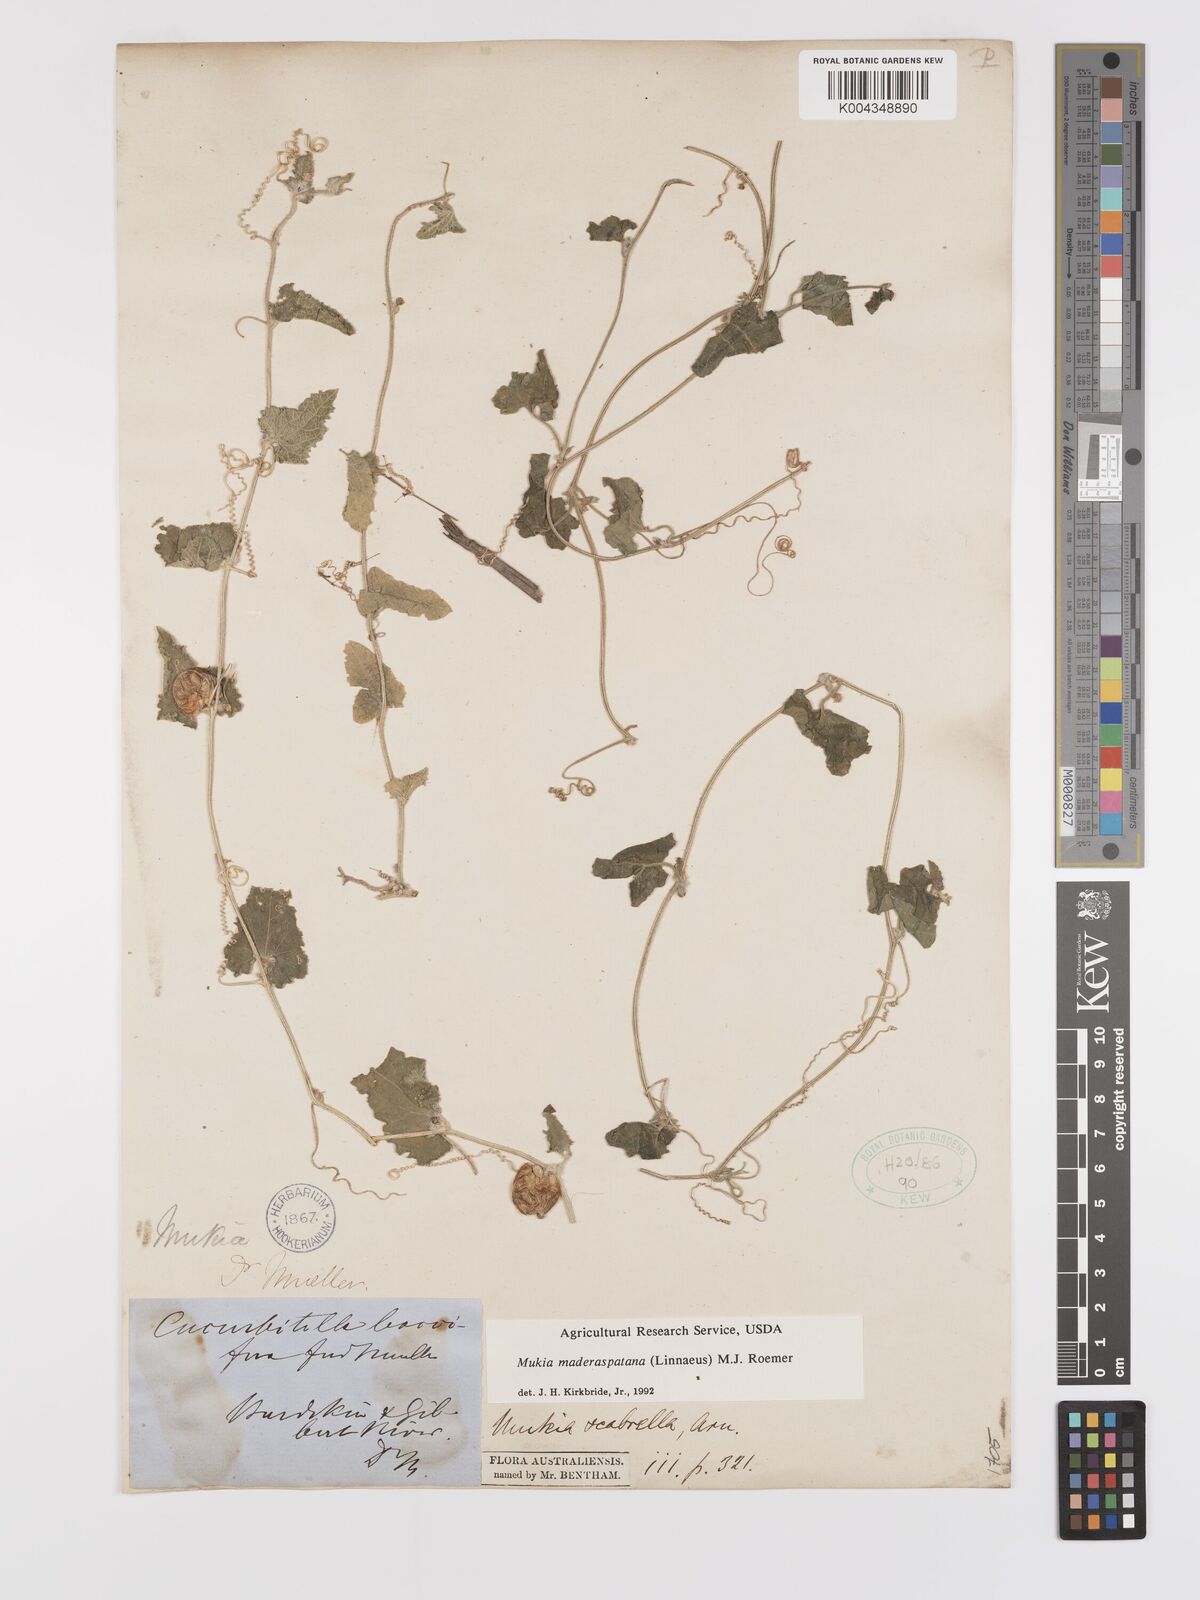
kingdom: Animalia
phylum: Arthropoda
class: Insecta
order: Lepidoptera
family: Crambidae
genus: Mukia
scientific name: Mukia
